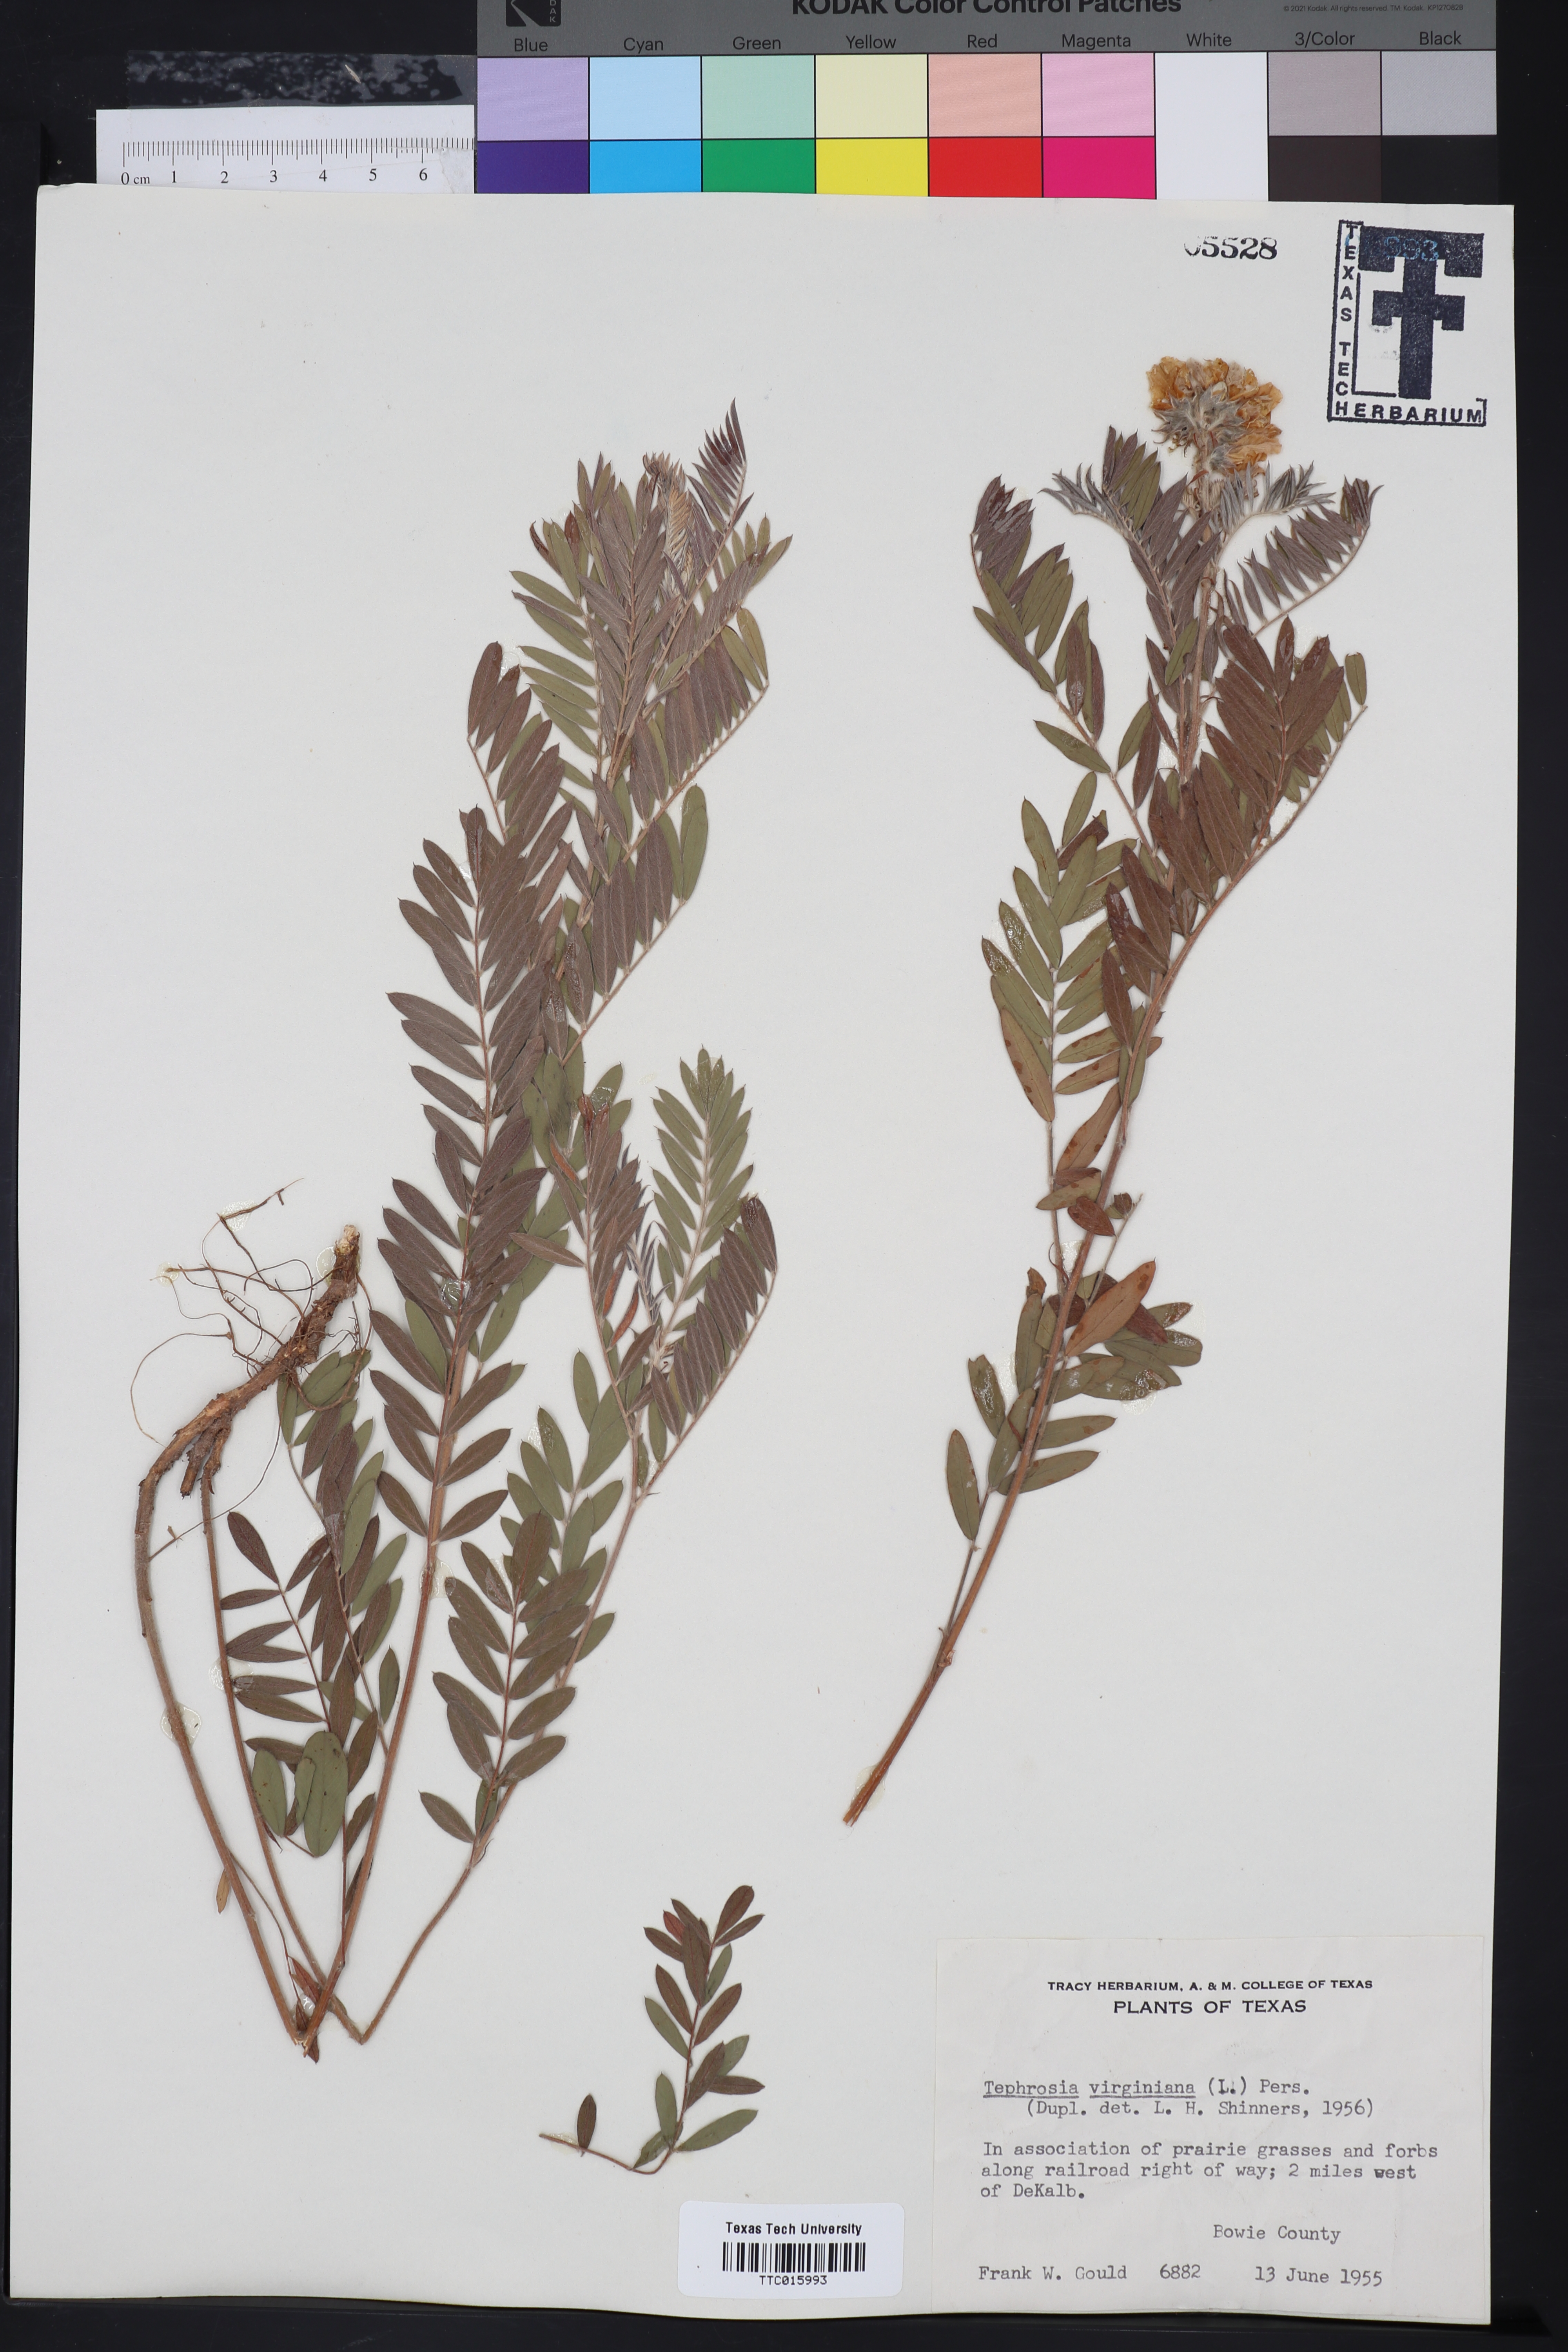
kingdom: Plantae
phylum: Tracheophyta
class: Magnoliopsida
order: Fabales
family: Fabaceae
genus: Tephrosia
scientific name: Tephrosia virginiana
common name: Rabbit-pea
